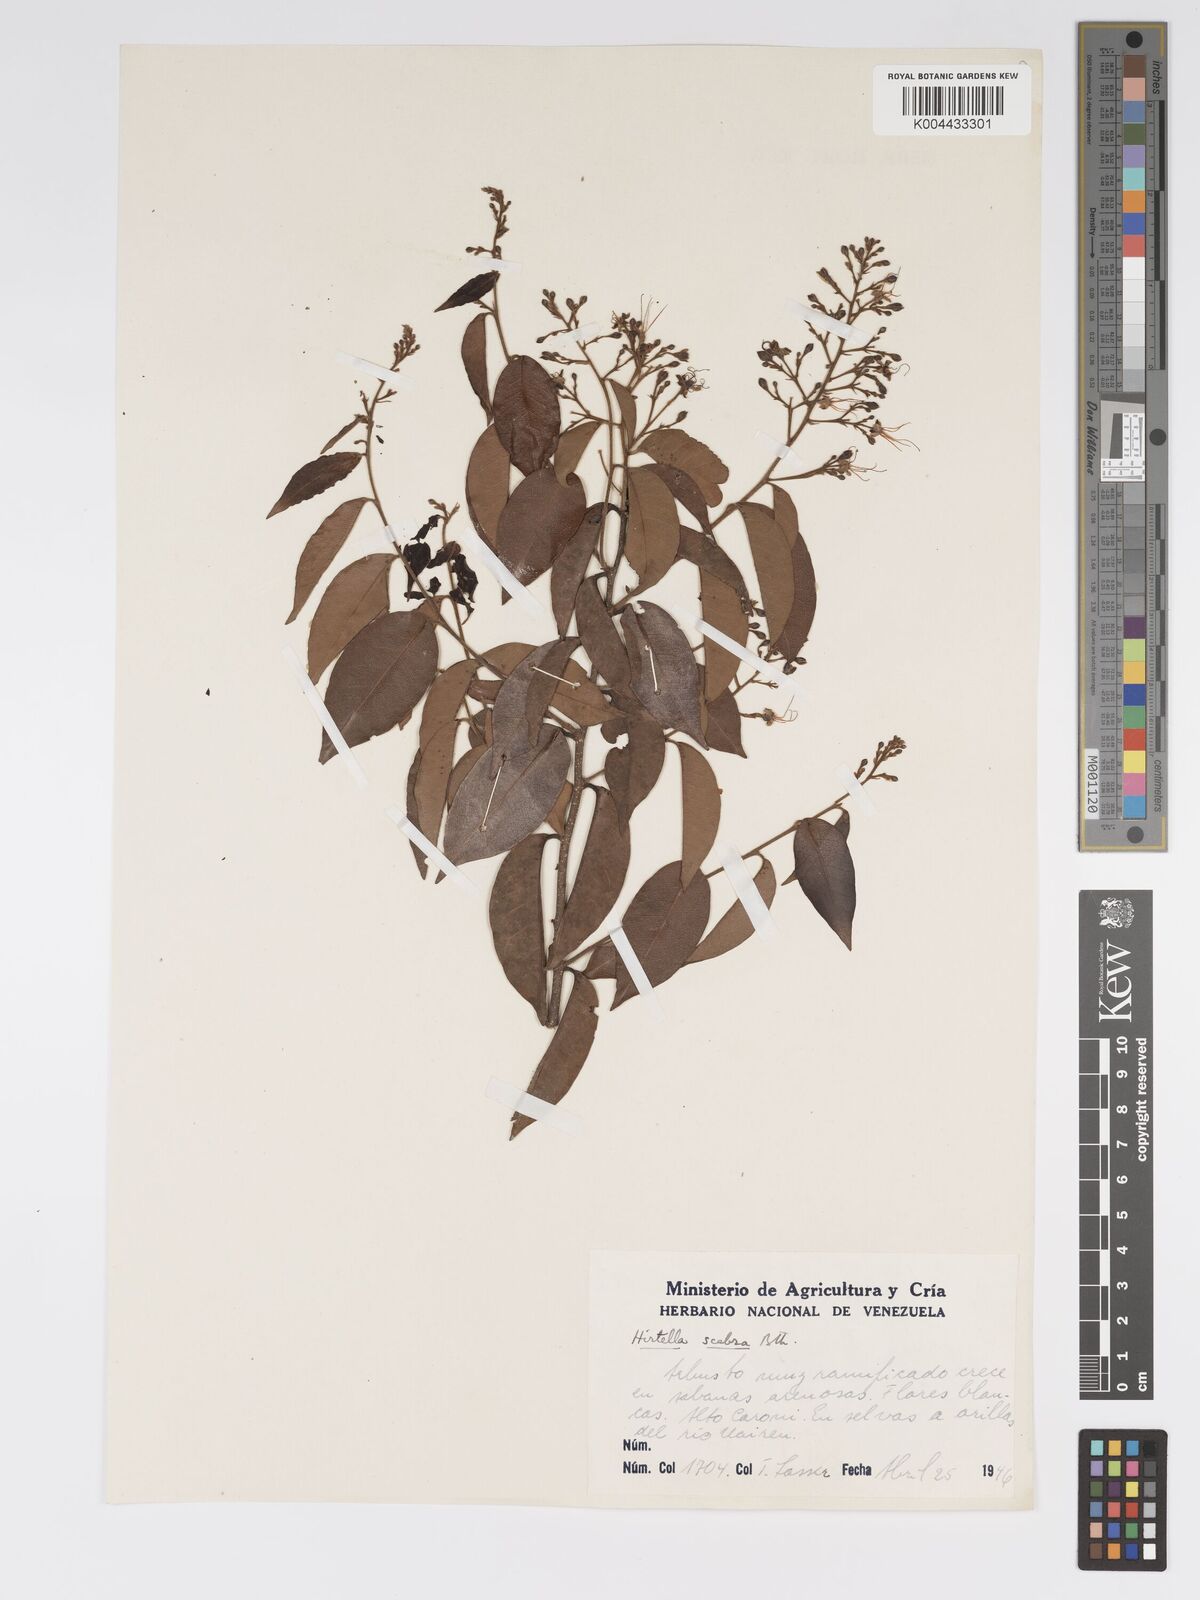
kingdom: Plantae
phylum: Tracheophyta
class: Magnoliopsida
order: Malpighiales
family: Chrysobalanaceae
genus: Hirtella
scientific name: Hirtella scabra
